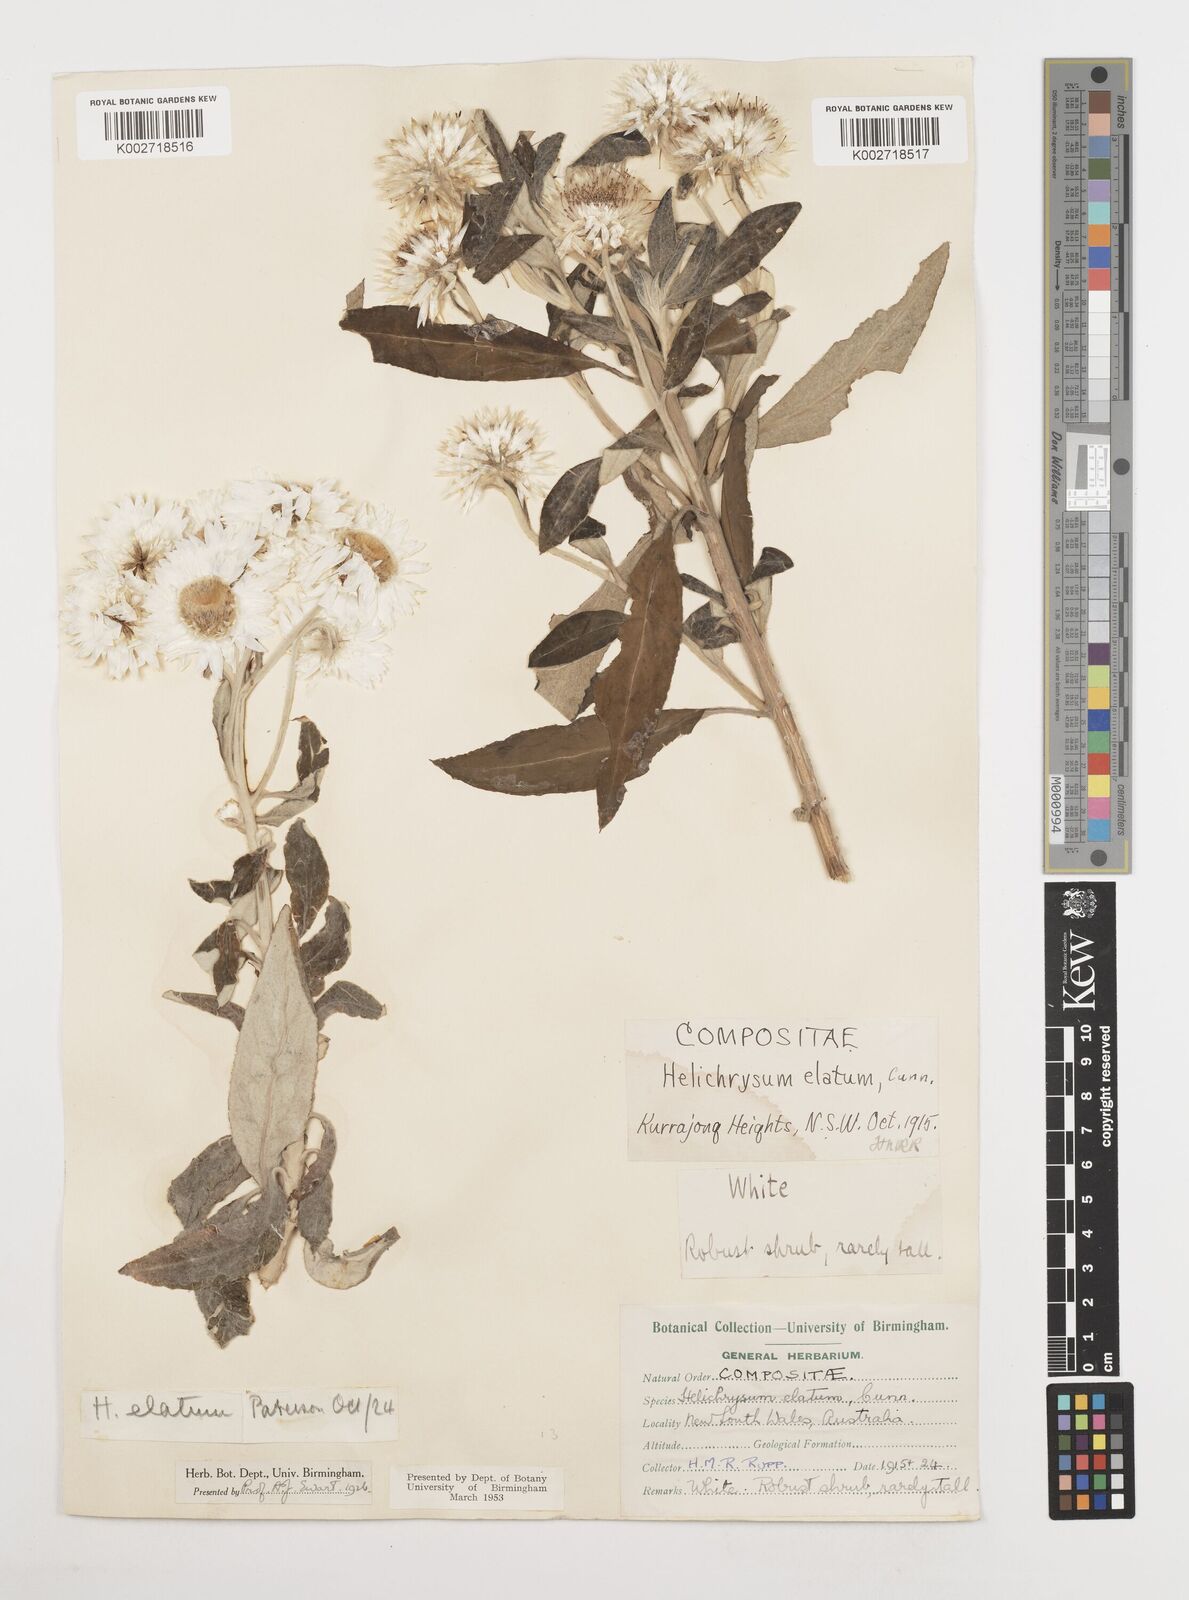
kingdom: Plantae
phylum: Tracheophyta
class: Magnoliopsida
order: Asterales
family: Asteraceae
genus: Leucozoma
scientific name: Leucozoma elatum
